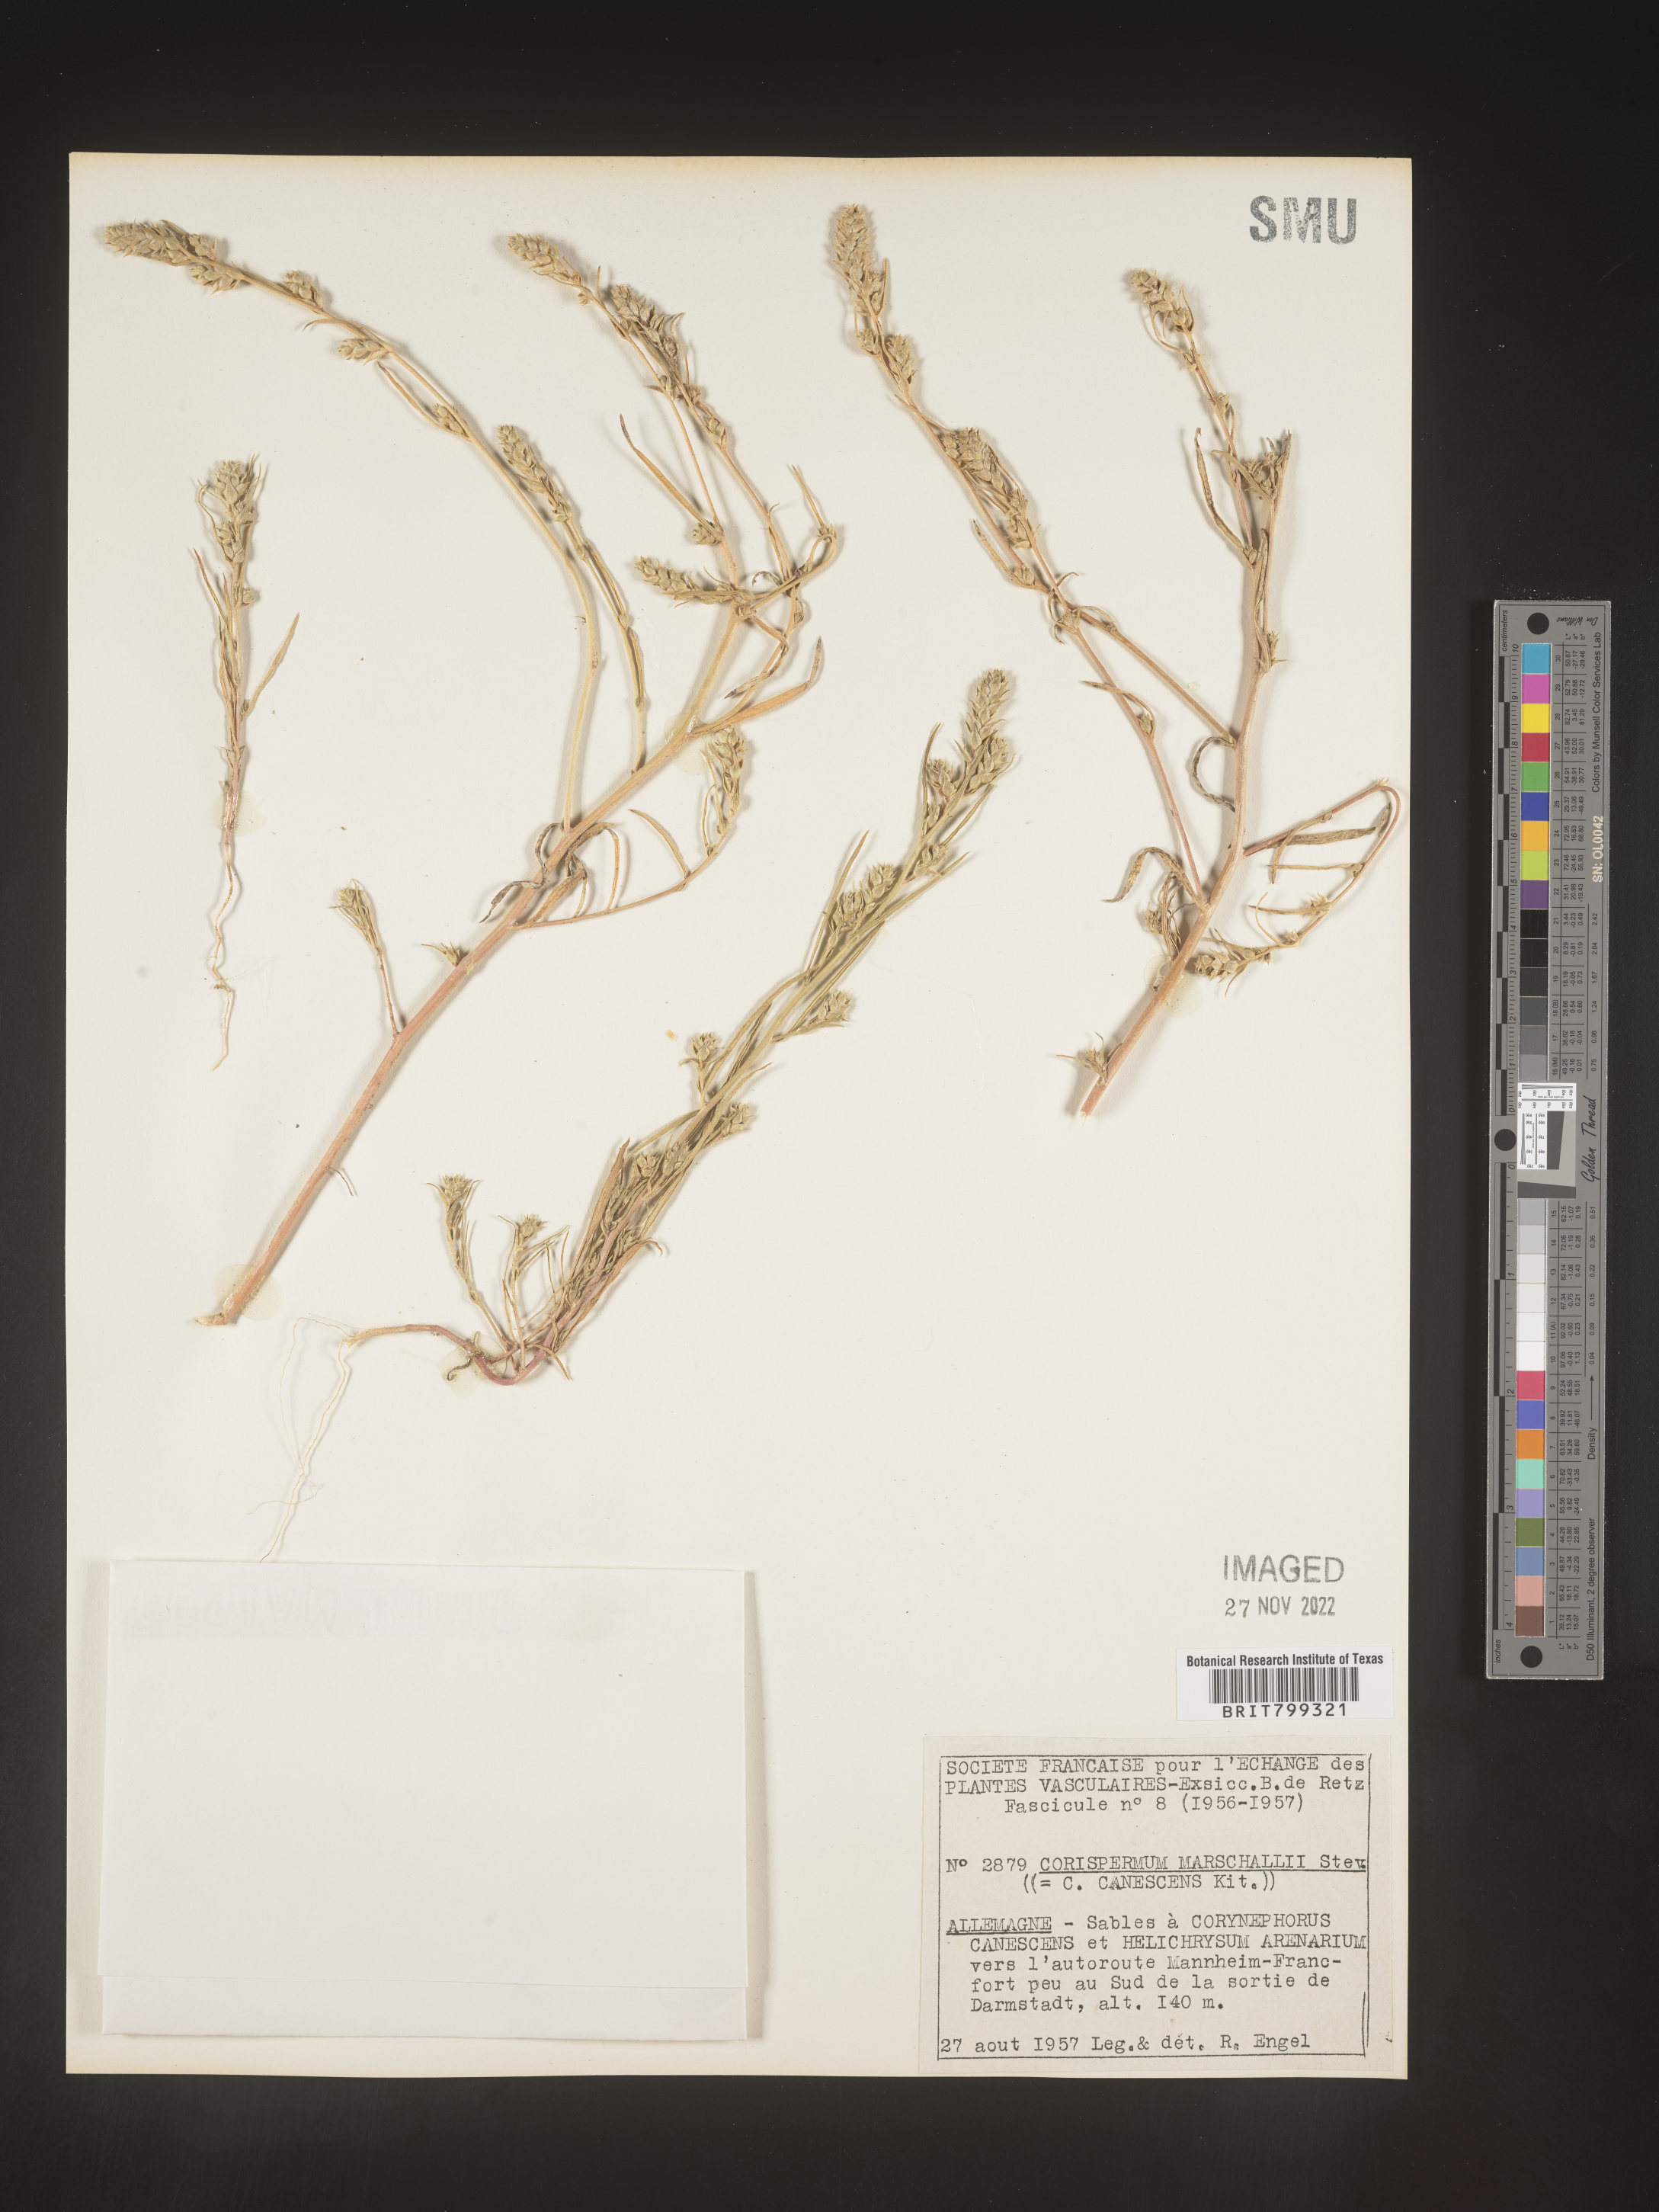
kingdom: Plantae
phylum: Tracheophyta
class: Magnoliopsida
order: Caryophyllales
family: Amaranthaceae
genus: Corispermum
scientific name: Corispermum
